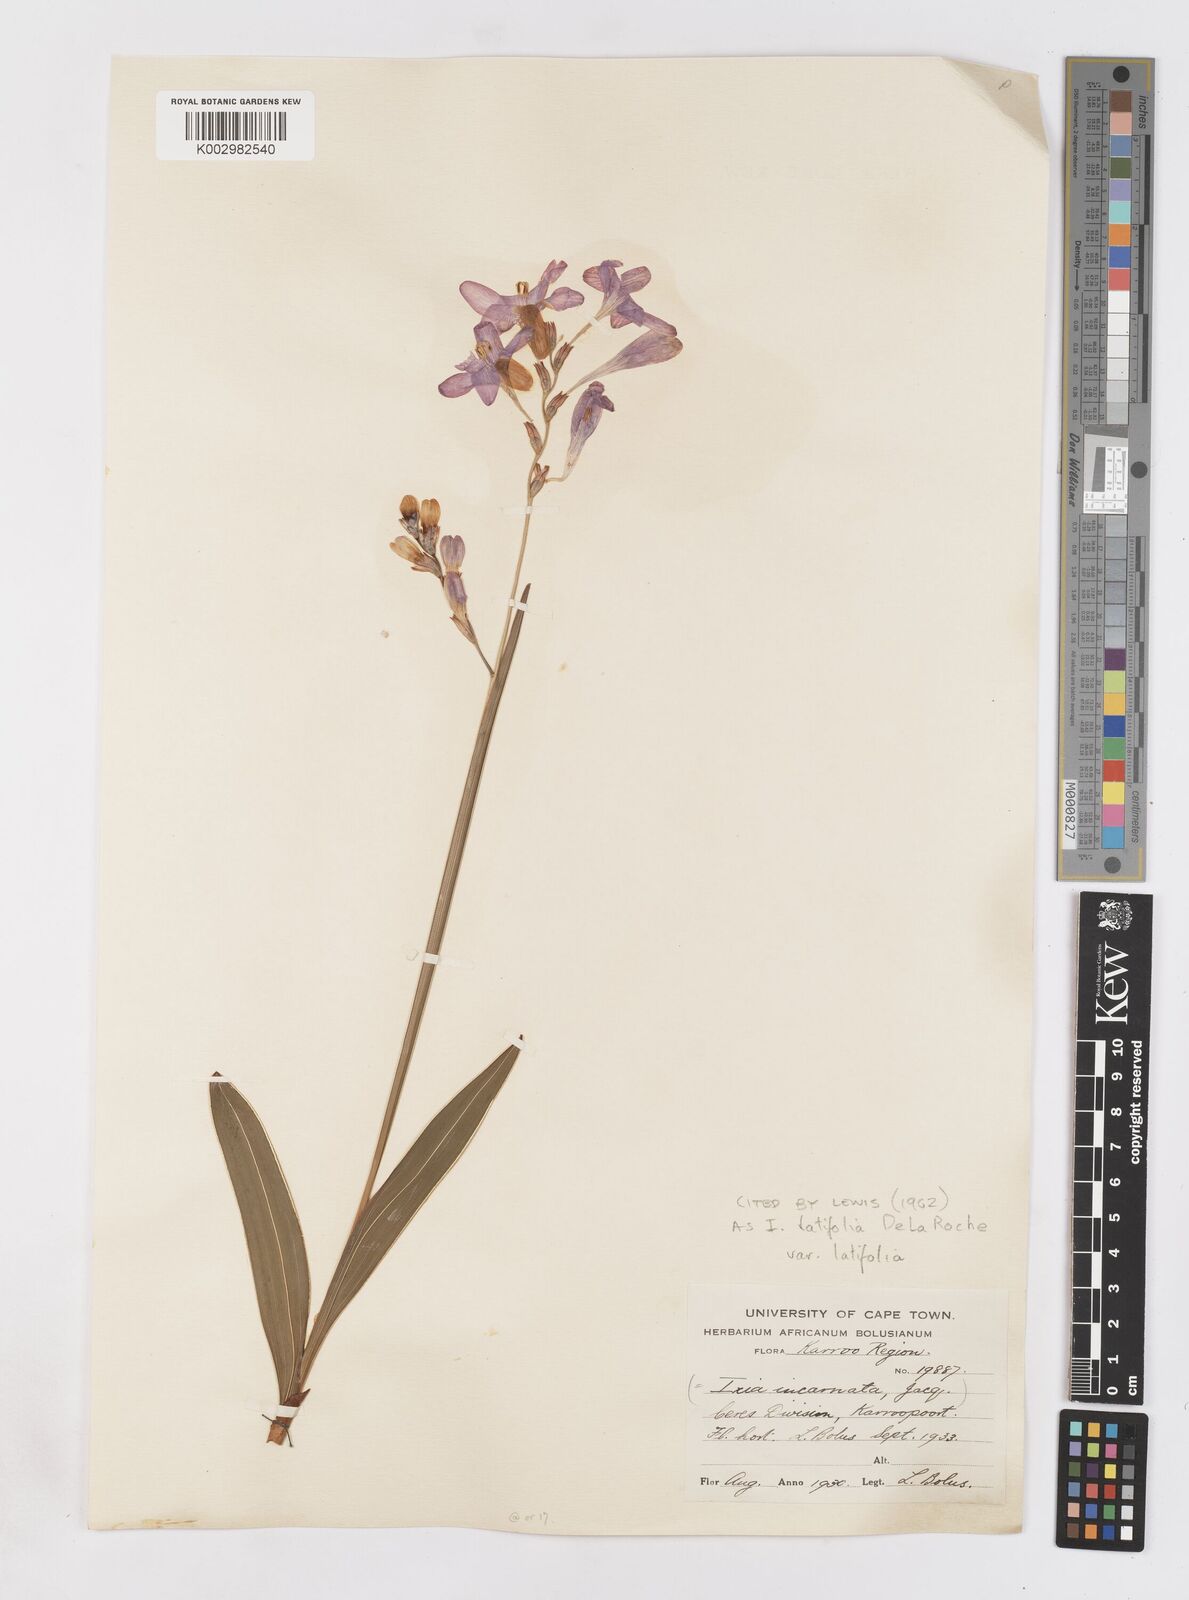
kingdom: Plantae
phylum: Tracheophyta
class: Liliopsida
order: Asparagales
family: Iridaceae
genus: Ixia
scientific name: Ixia latifolia
